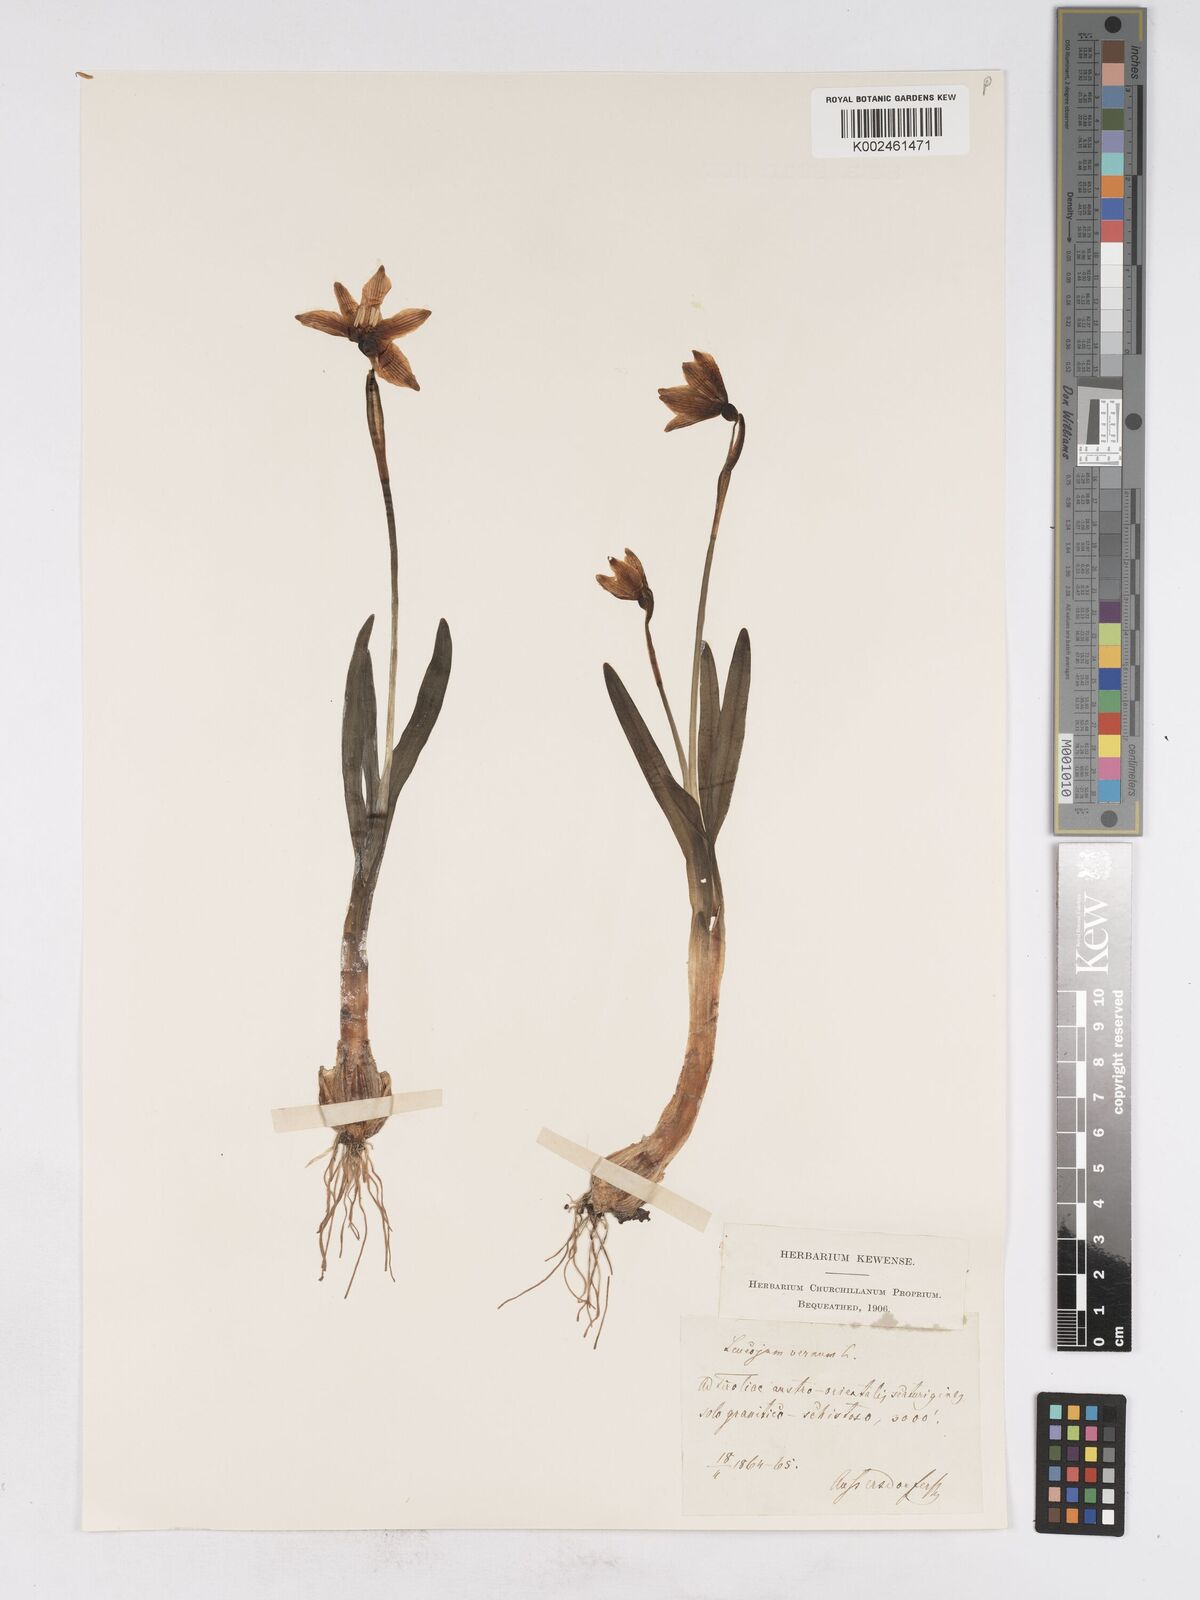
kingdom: Plantae
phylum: Tracheophyta
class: Liliopsida
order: Asparagales
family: Amaryllidaceae
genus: Leucojum
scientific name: Leucojum vernum
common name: Spring snowflake
